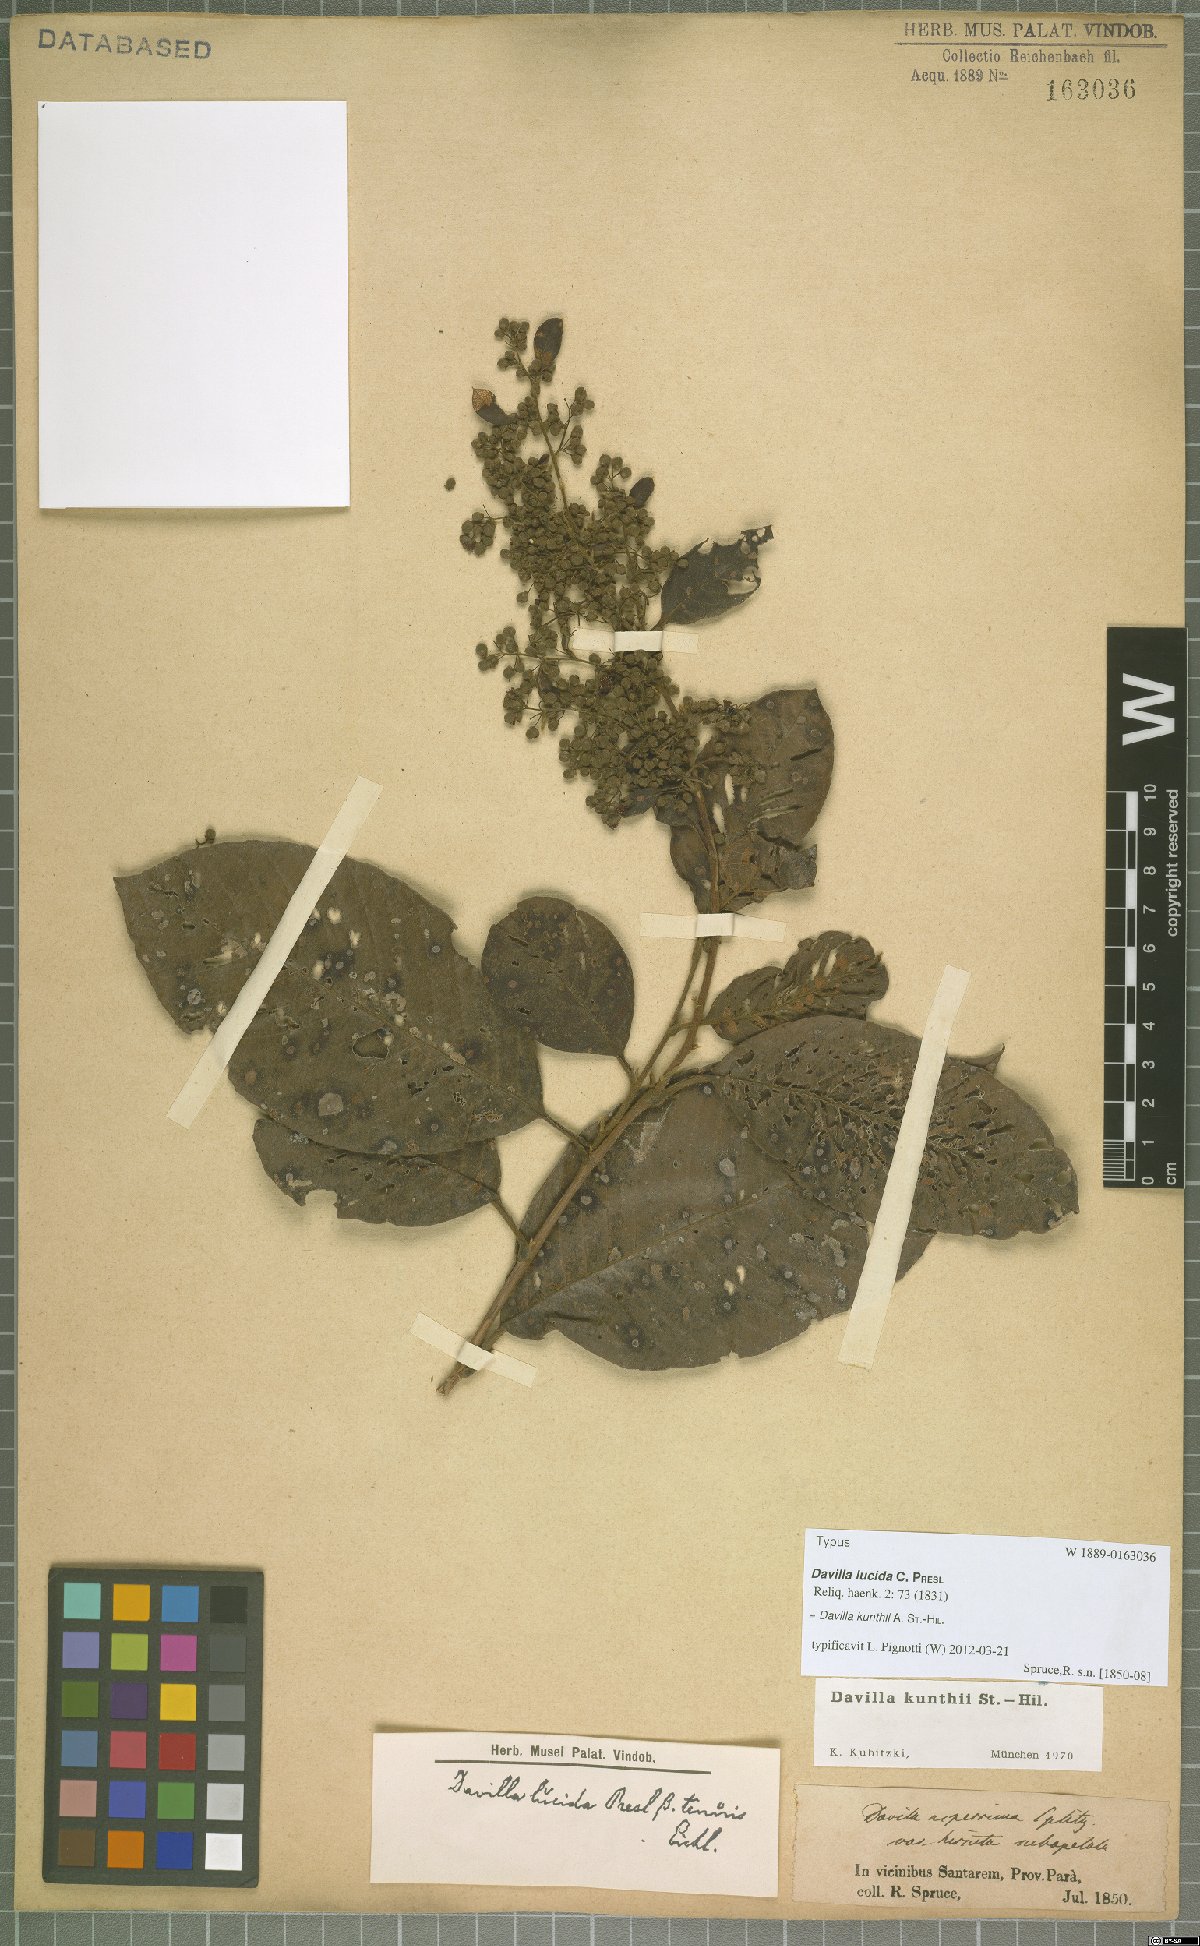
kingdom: Plantae
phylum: Tracheophyta
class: Magnoliopsida
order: Dilleniales
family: Dilleniaceae
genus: Davilla
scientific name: Davilla kunthii
